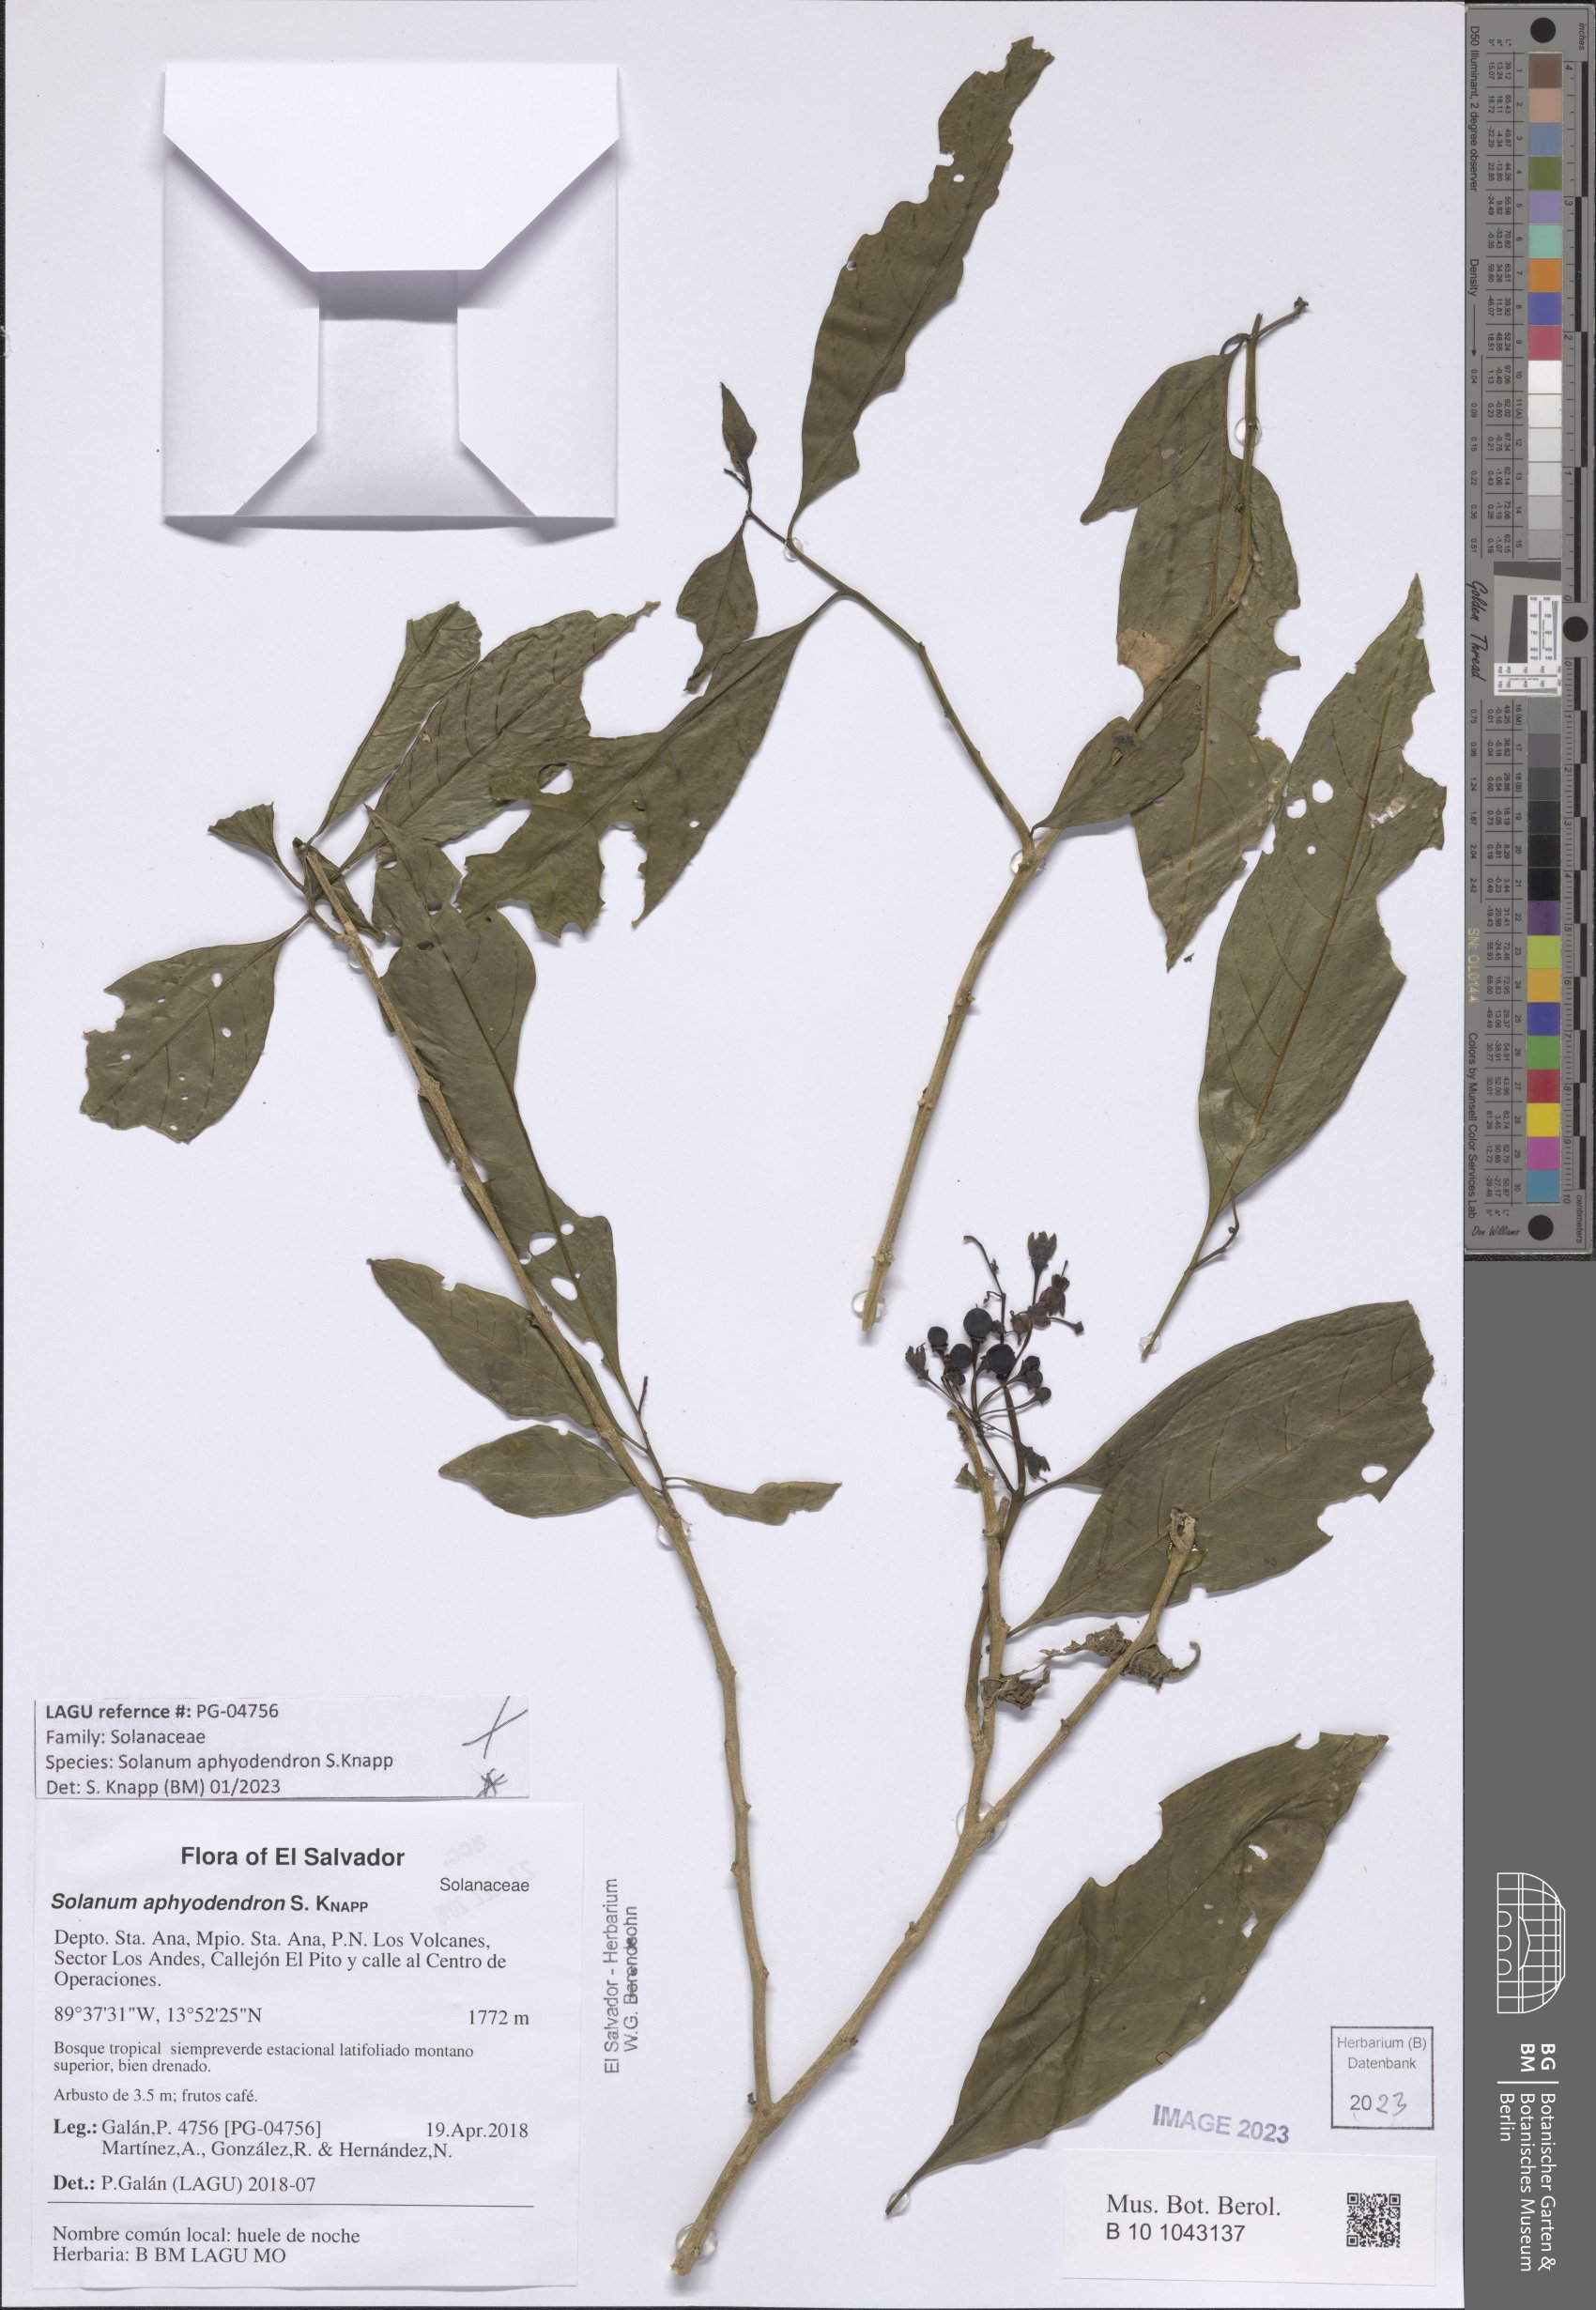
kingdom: Plantae
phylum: Tracheophyta
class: Magnoliopsida
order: Solanales
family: Solanaceae
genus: Solanum
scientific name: Solanum aphyodendron
